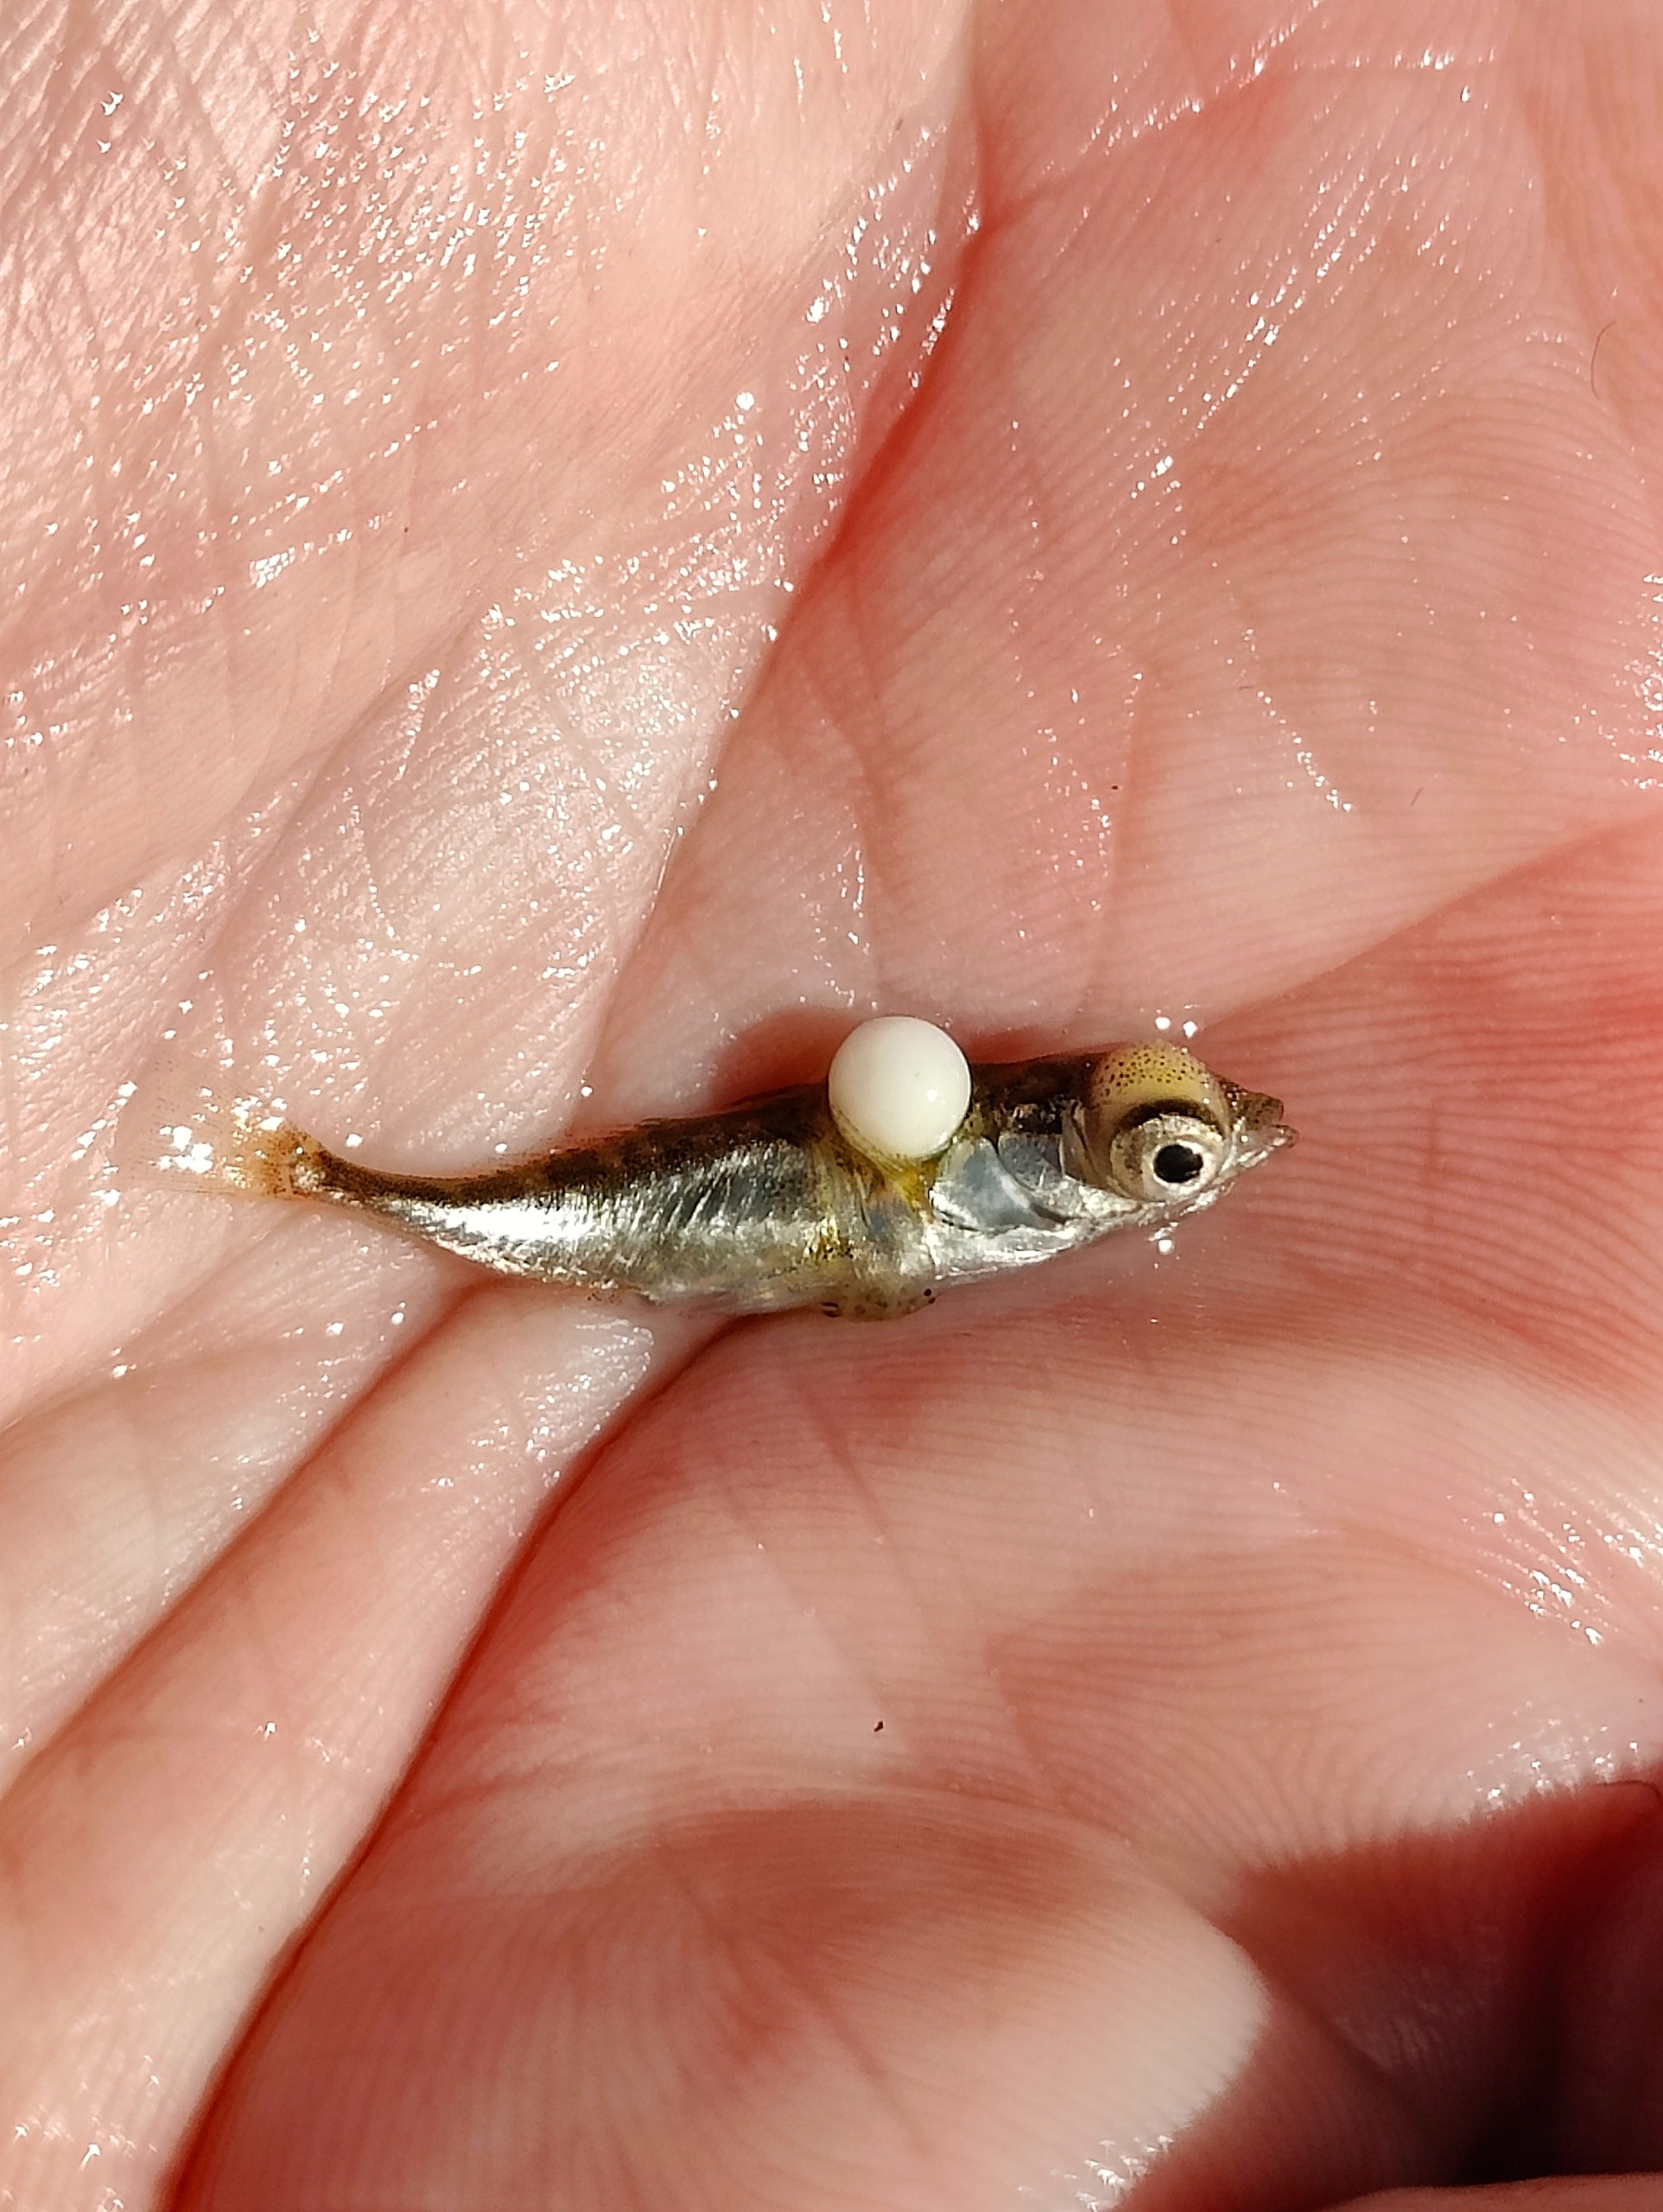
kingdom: Animalia
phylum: Chordata
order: Gasterosteiformes
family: Gasterosteidae
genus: Gasterosteus
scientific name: Gasterosteus aculeatus
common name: Trepigget hundestejle
